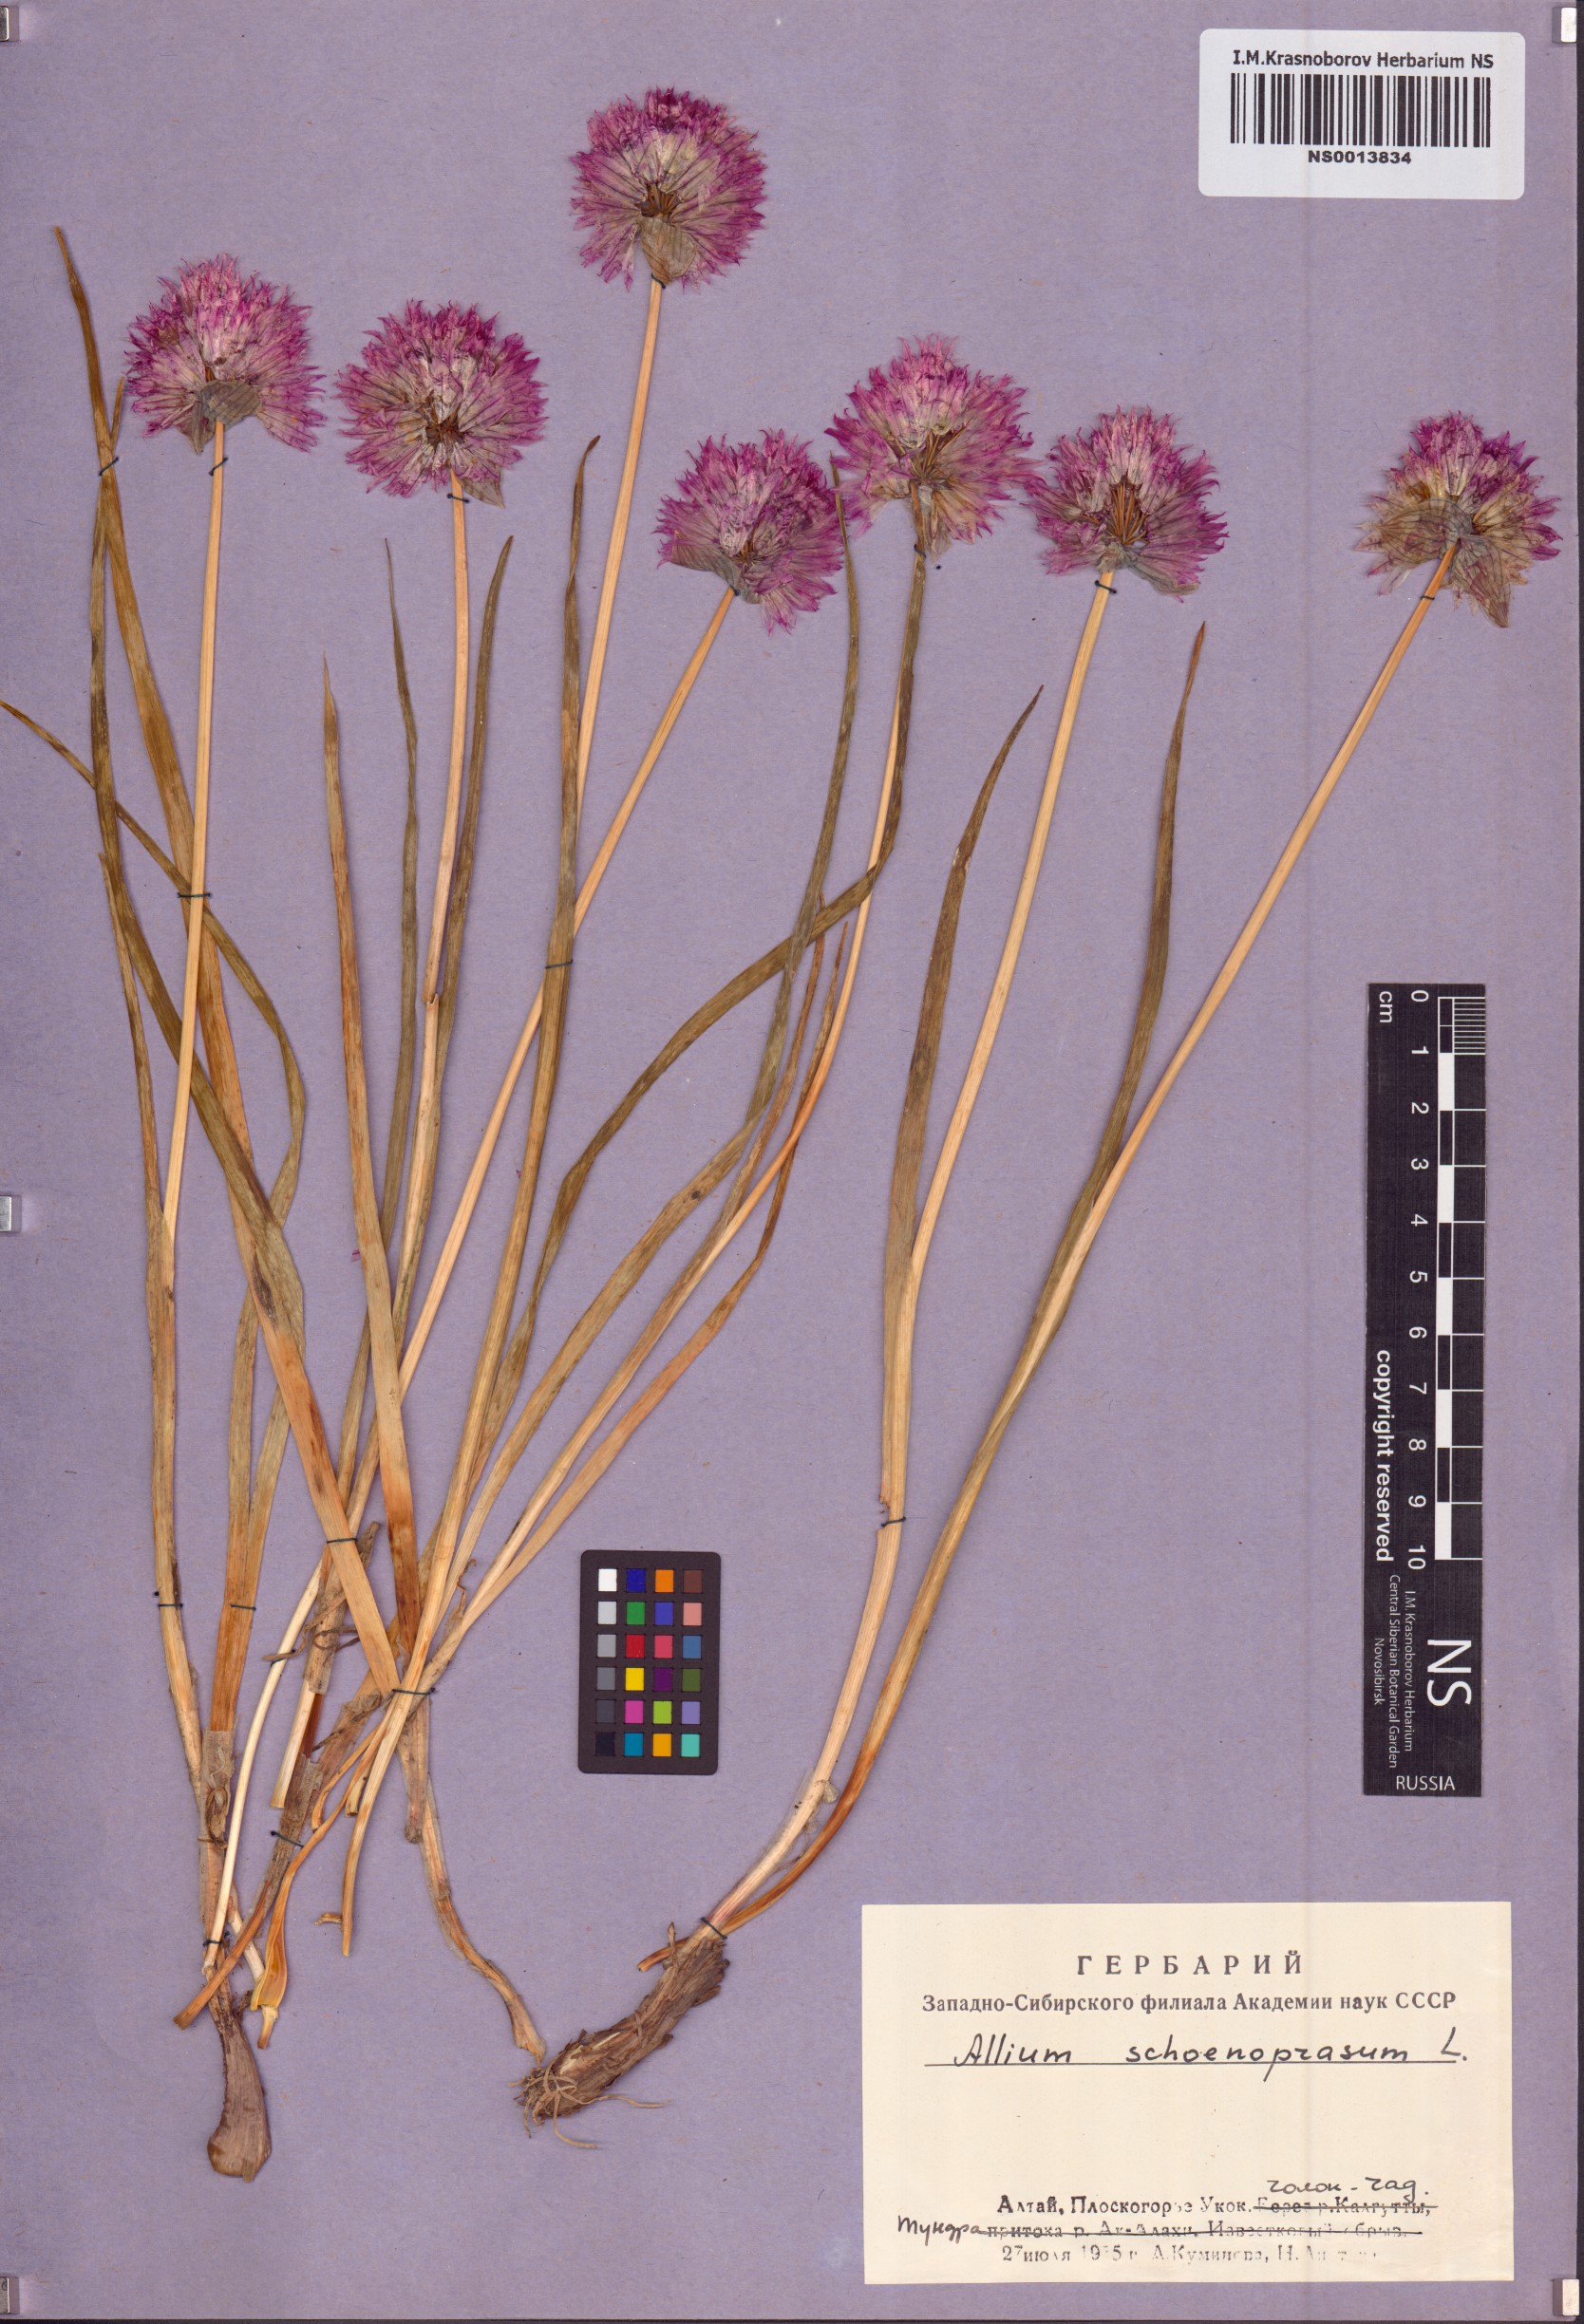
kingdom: Plantae
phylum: Tracheophyta
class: Liliopsida
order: Asparagales
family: Amaryllidaceae
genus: Allium
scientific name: Allium schoenoprasum
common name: Chives
